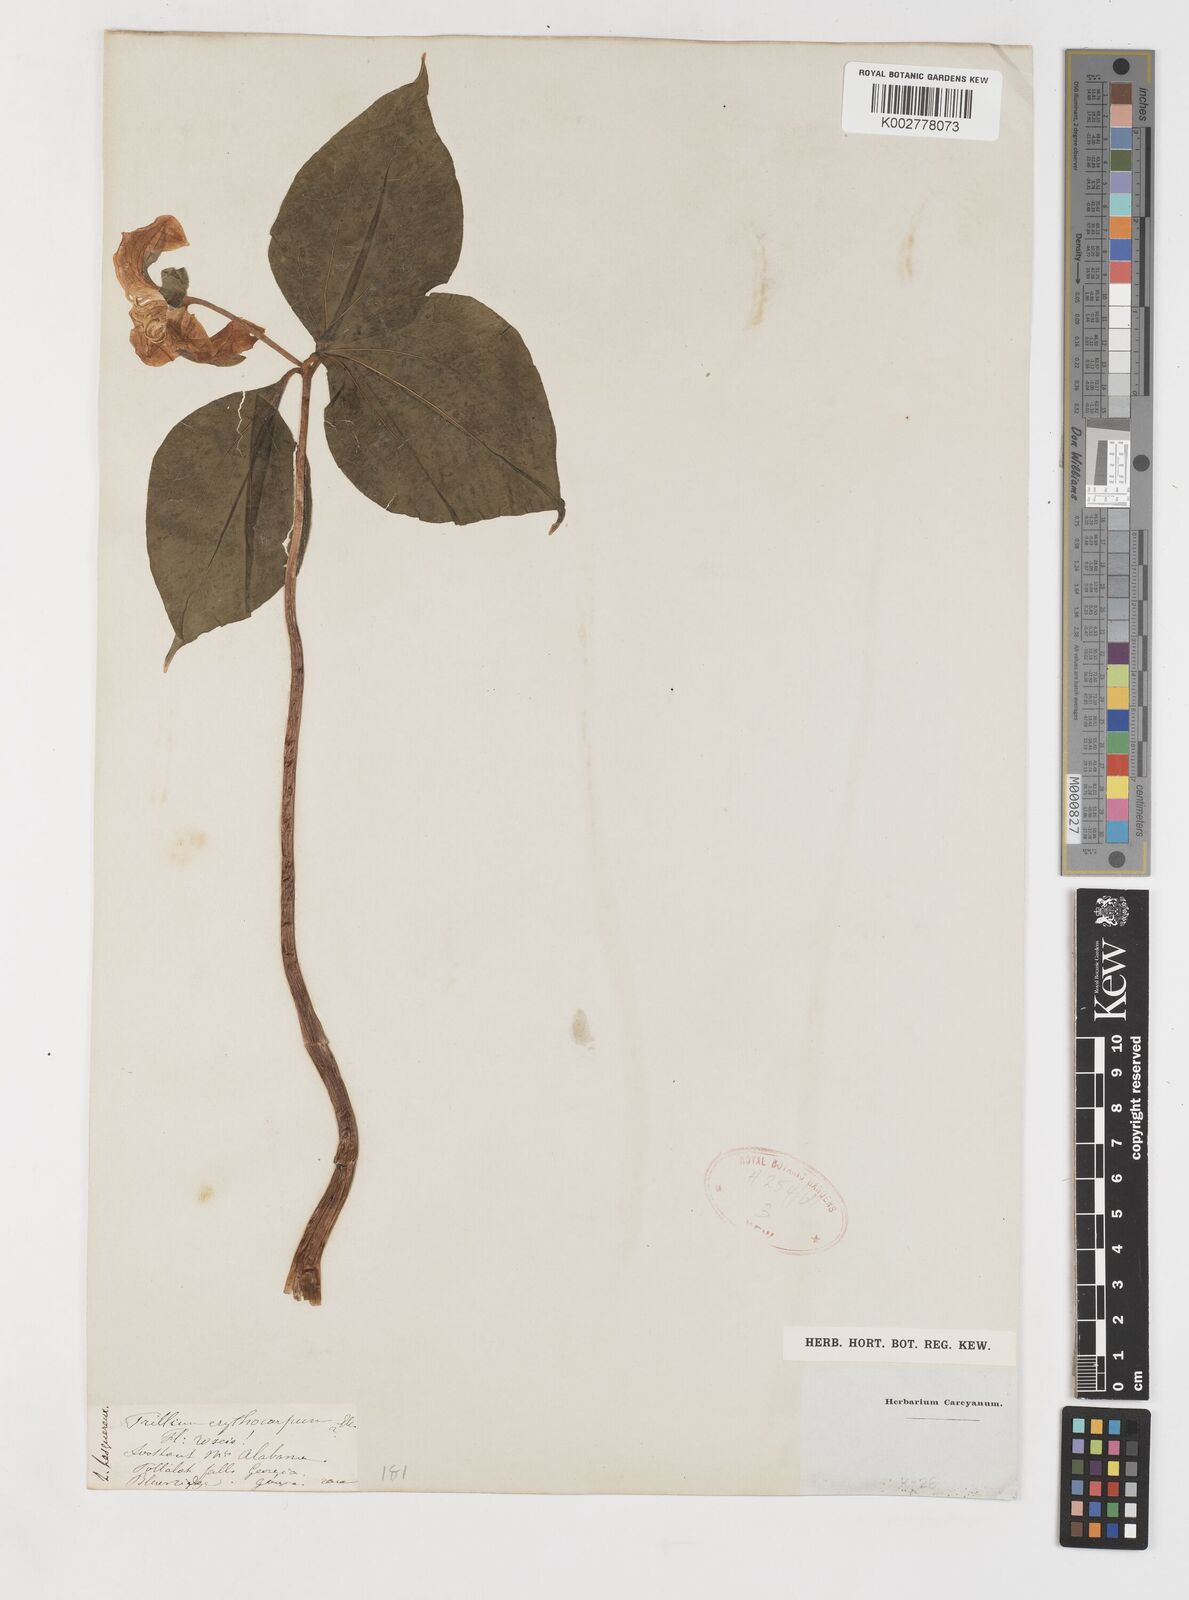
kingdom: Plantae
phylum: Tracheophyta
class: Liliopsida
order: Liliales
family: Melanthiaceae
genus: Trillium
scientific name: Trillium undulatum
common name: Paint trillium
